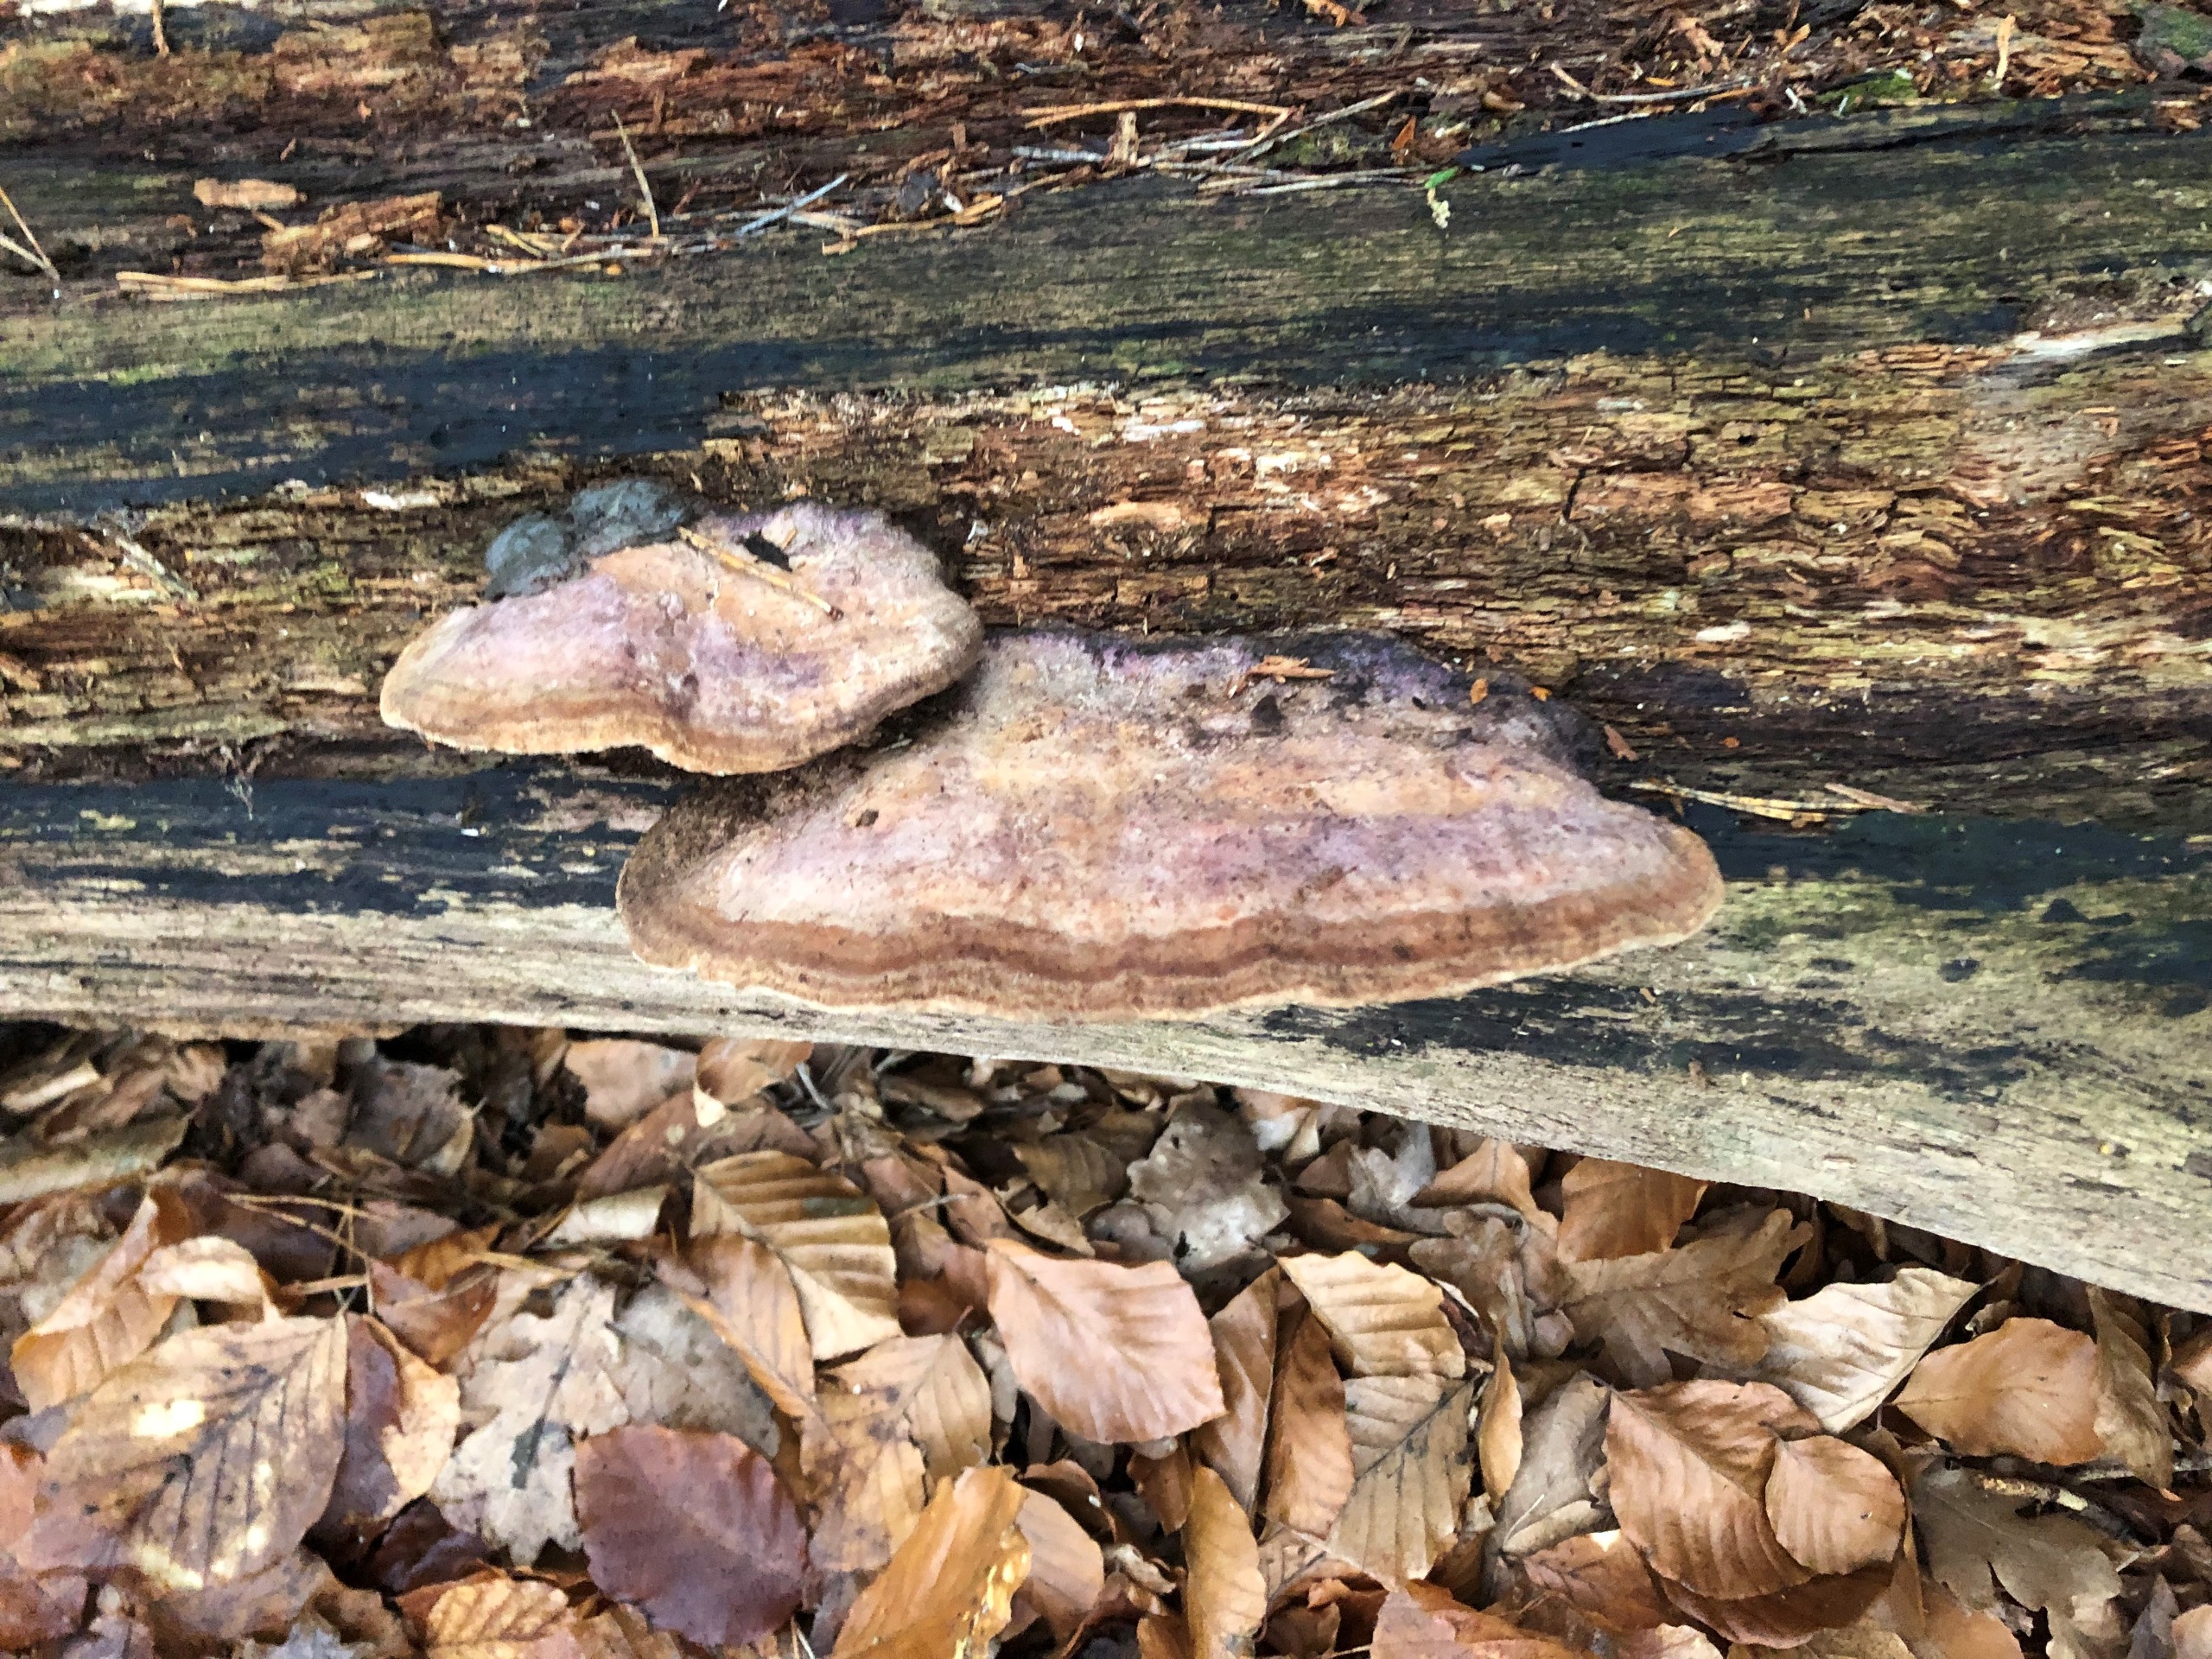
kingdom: Fungi
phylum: Basidiomycota
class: Agaricomycetes
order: Polyporales
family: Fomitopsidaceae
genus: Daedalea
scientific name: Daedalea quercina
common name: Ege-labyrintsvamp
